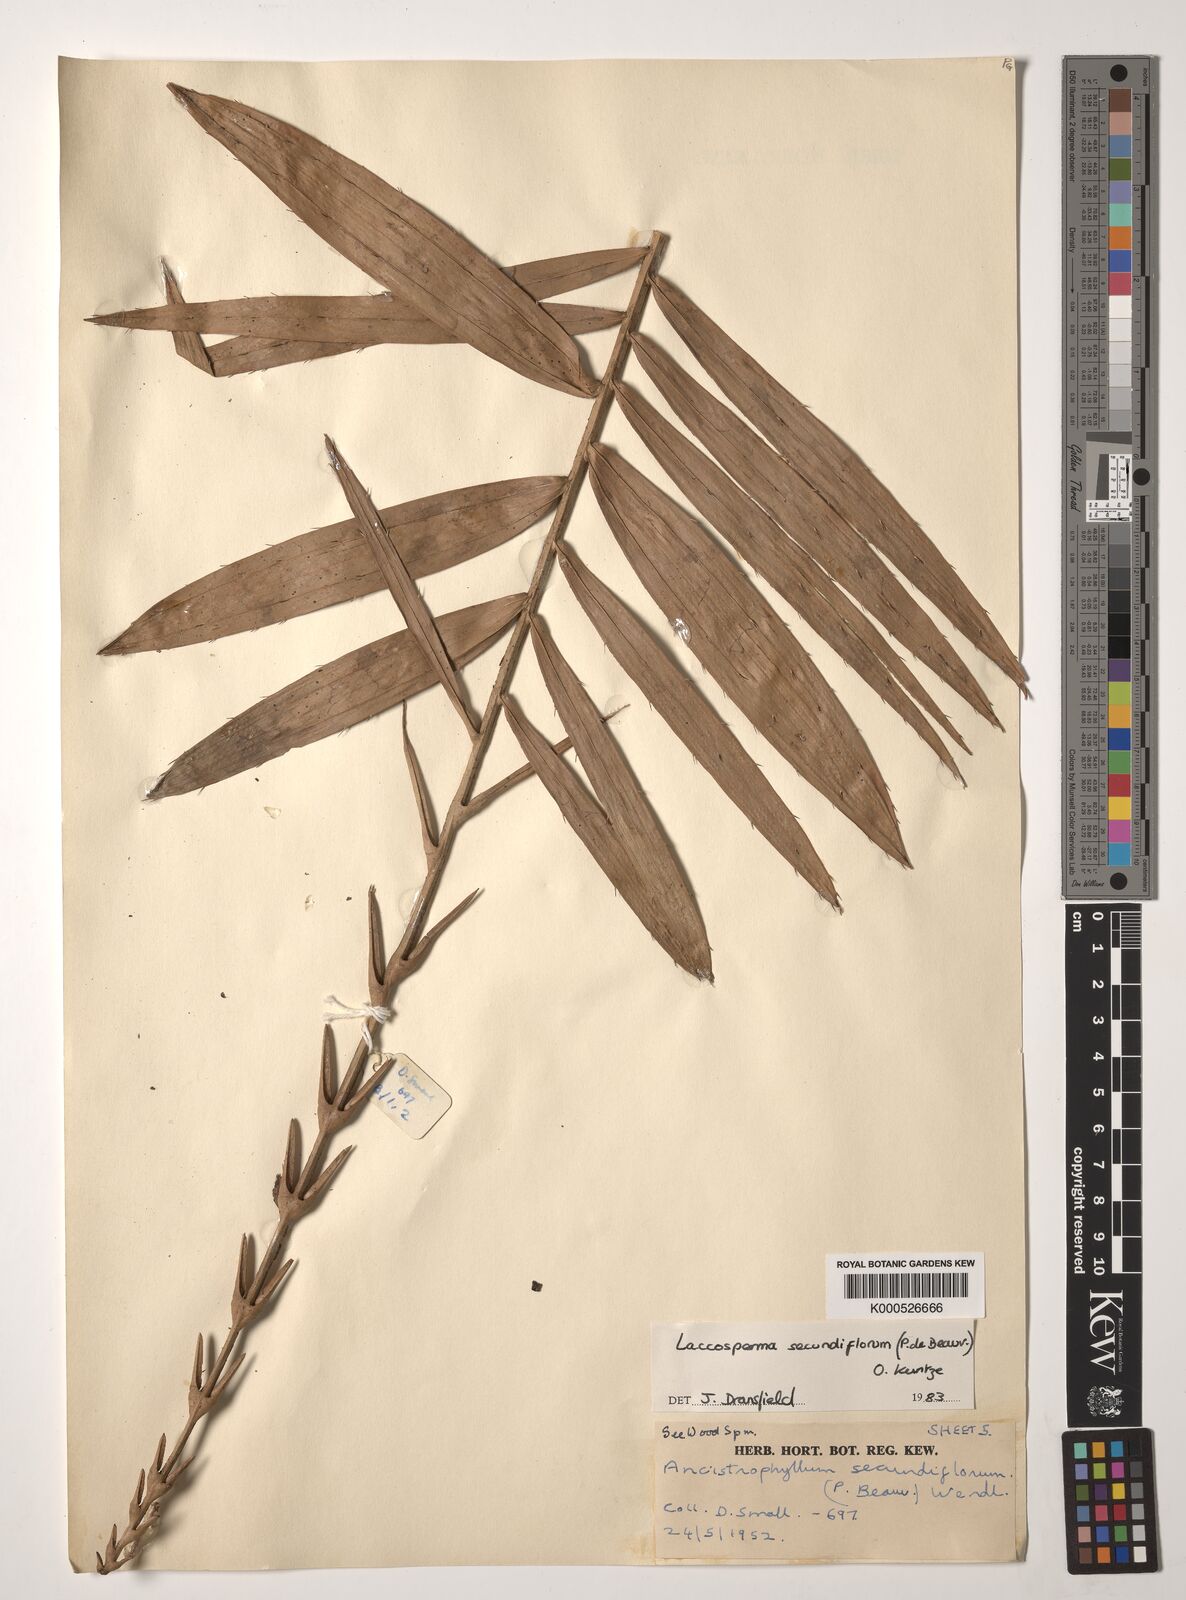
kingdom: Plantae
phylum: Tracheophyta
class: Liliopsida
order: Arecales
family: Arecaceae
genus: Laccosperma
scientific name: Laccosperma secundiflorum
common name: Rattan
